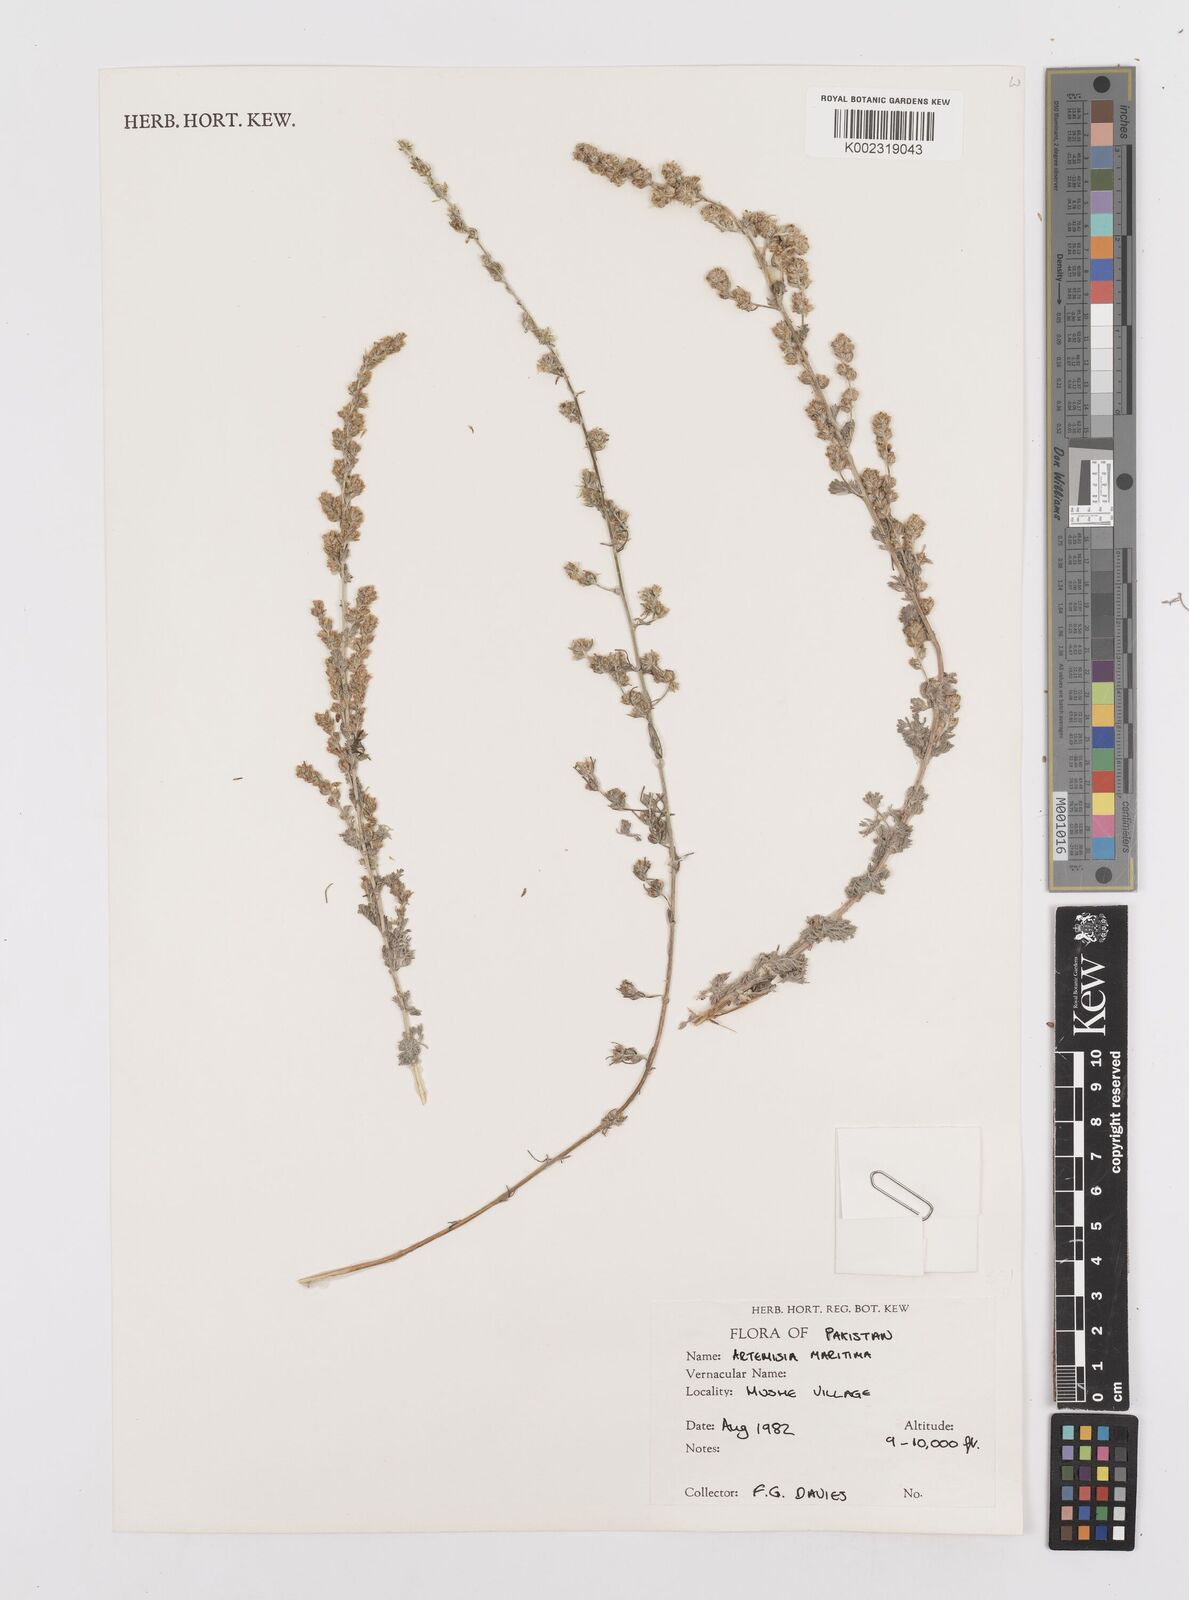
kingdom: Plantae
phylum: Tracheophyta
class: Magnoliopsida
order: Asterales
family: Asteraceae
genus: Artemisia
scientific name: Artemisia brevifolia
